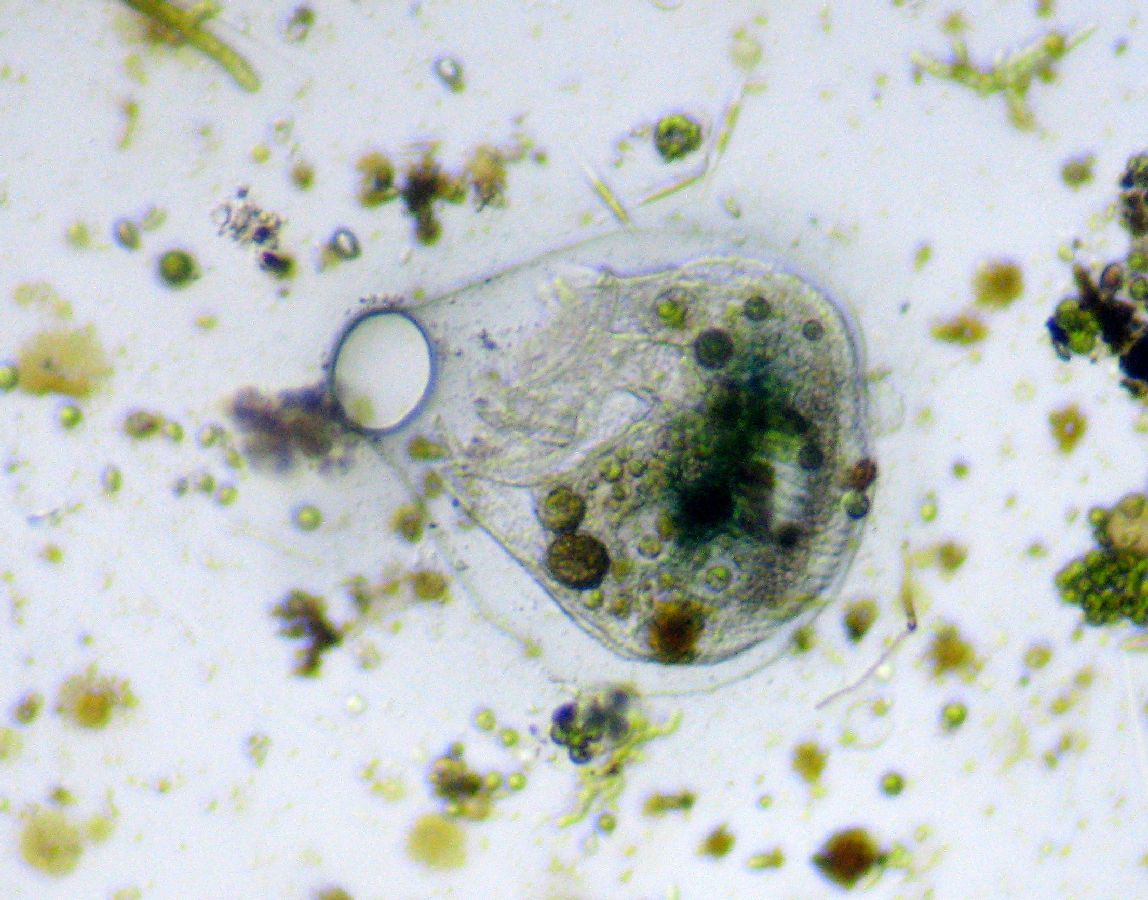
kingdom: Chromista
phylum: Ciliophora
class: Heterotrichea
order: Heterotrichida
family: Folliculinidae
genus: Folliculina
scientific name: Folliculina boltoni
